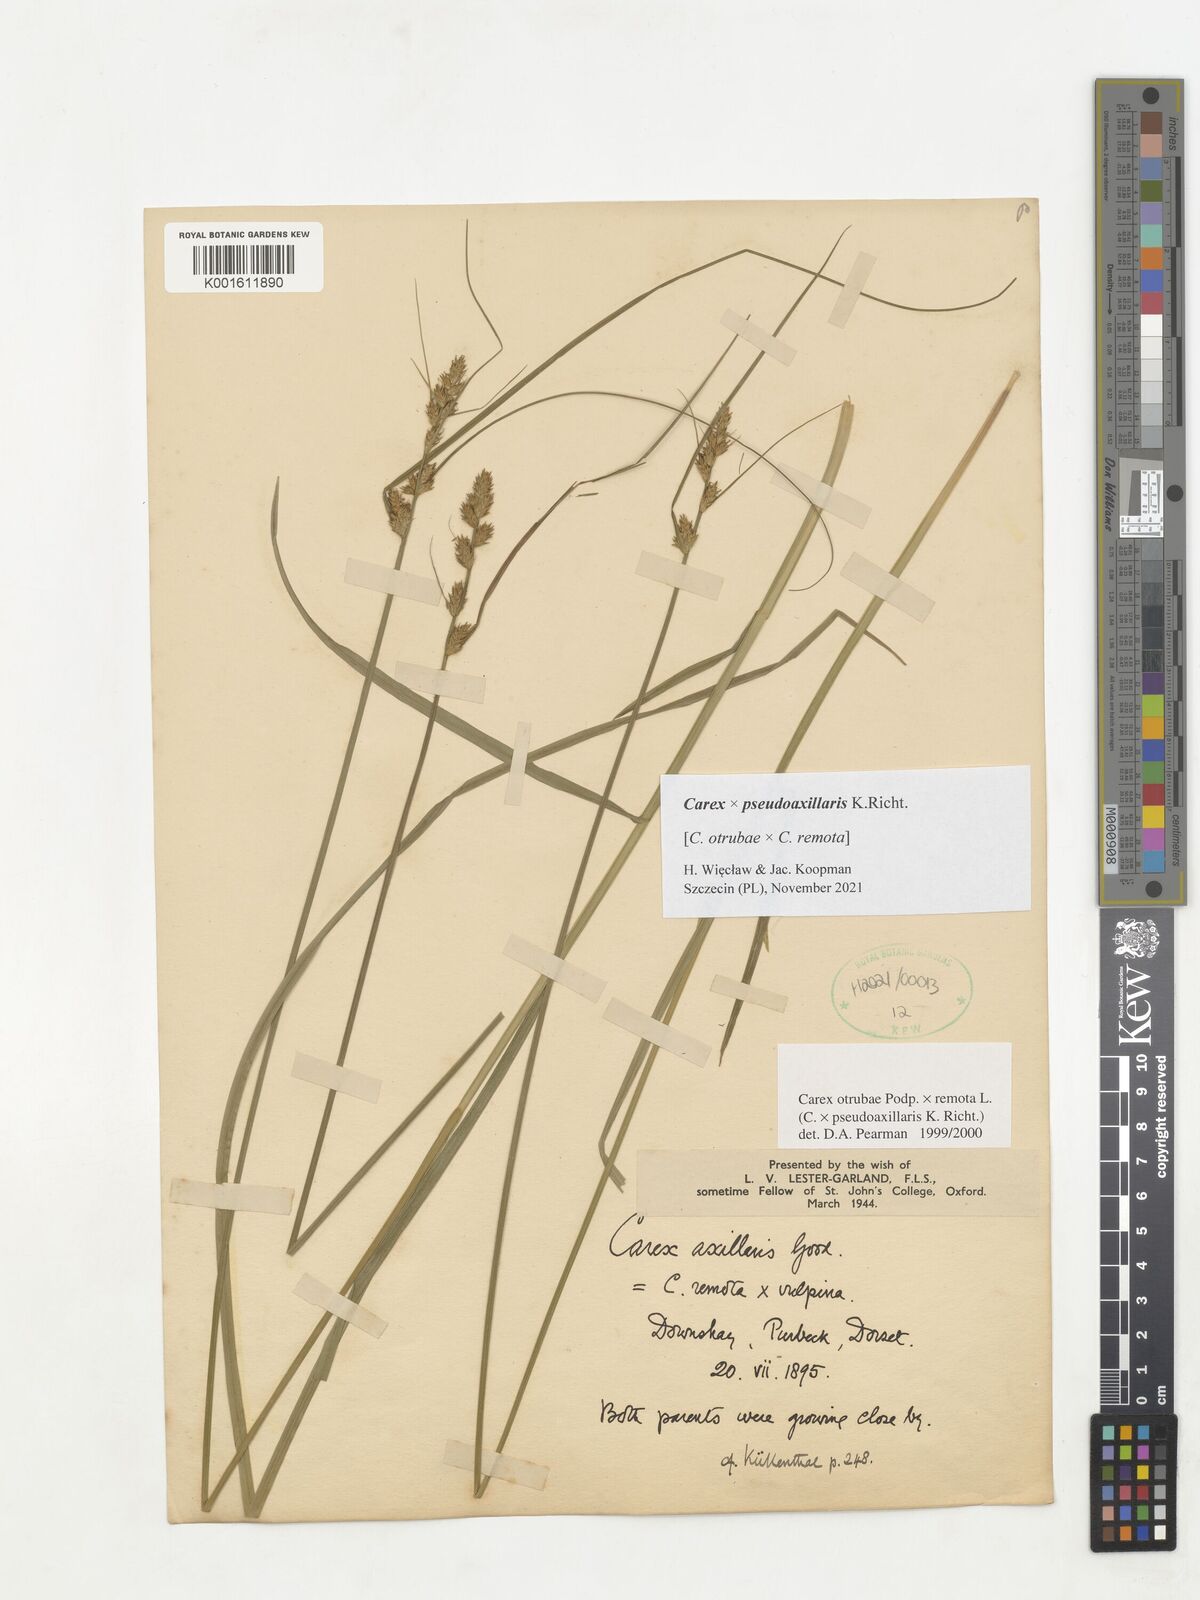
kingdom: Plantae
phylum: Tracheophyta
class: Liliopsida
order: Poales
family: Cyperaceae
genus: Carex
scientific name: Carex pseudoaxillaris
